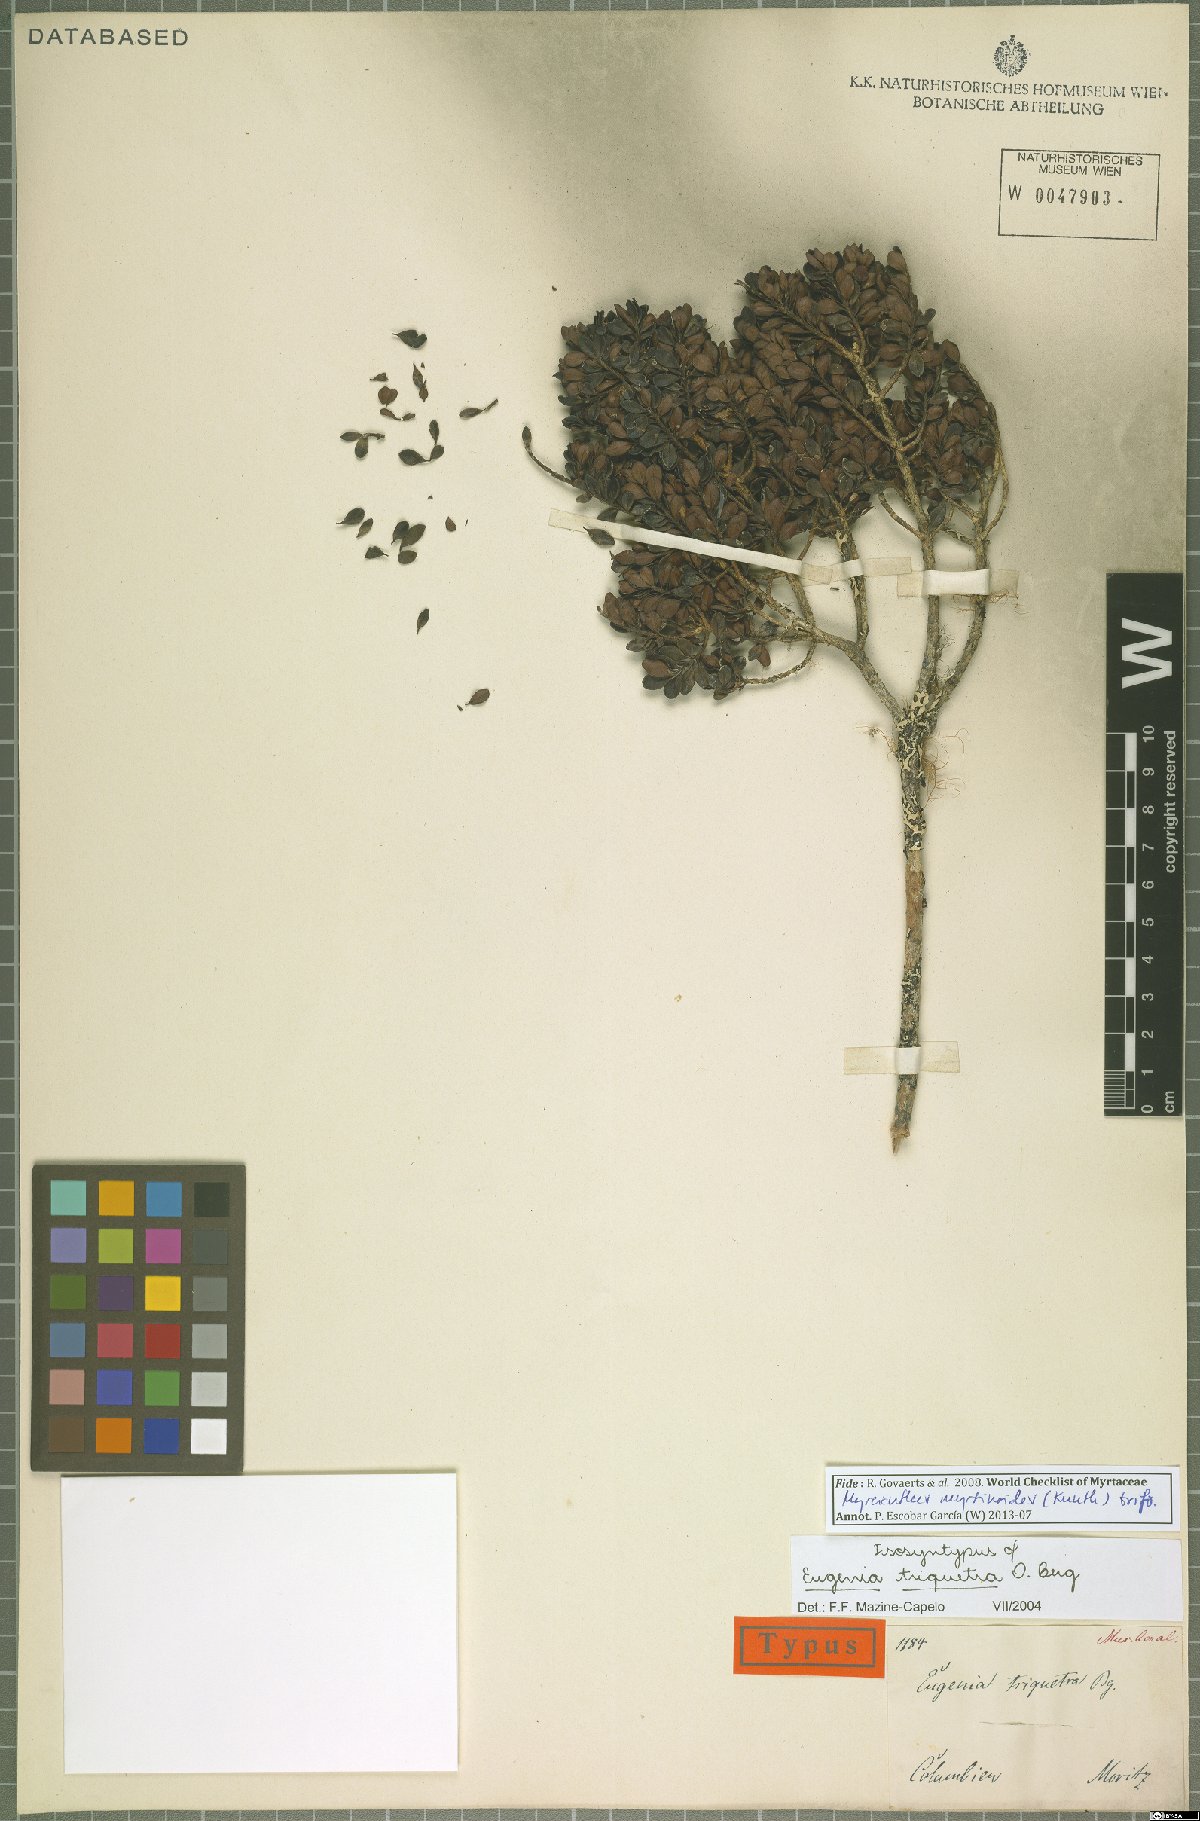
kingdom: Plantae
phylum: Tracheophyta
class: Magnoliopsida
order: Myrtales
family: Myrtaceae
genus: Myrcianthes
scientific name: Myrcianthes myrsinoides
